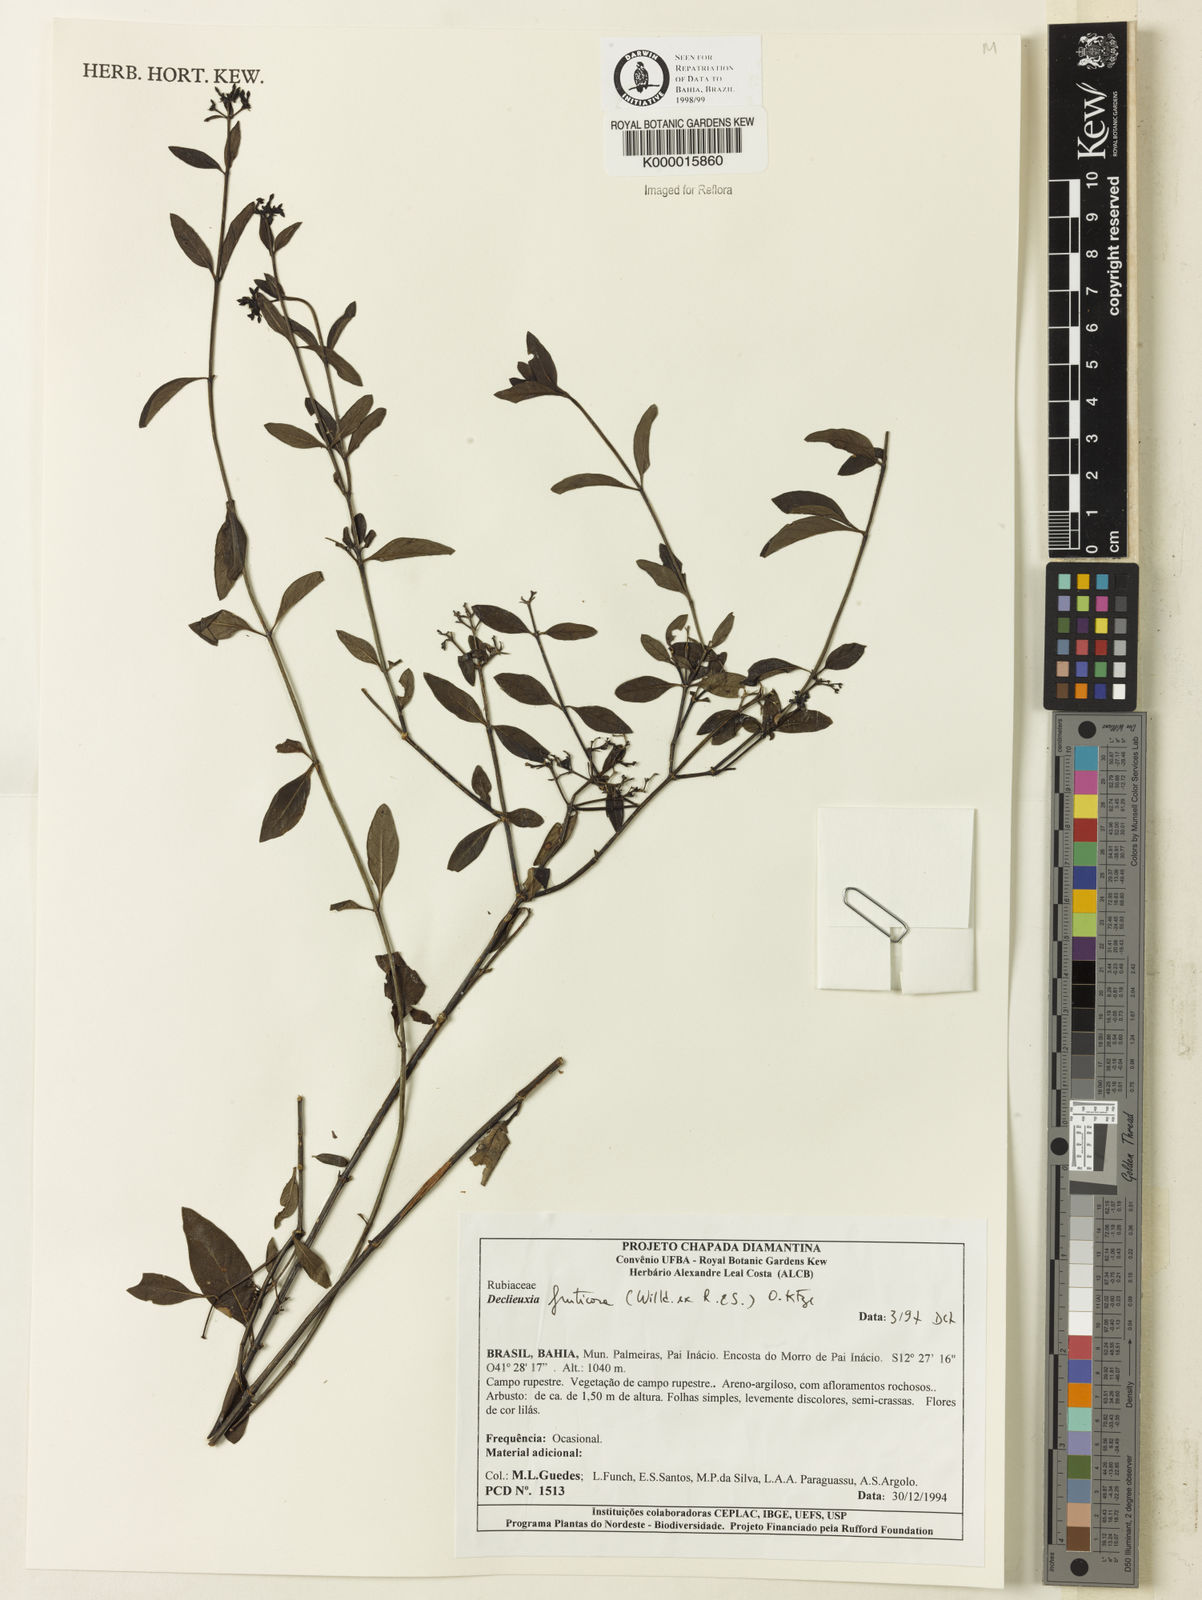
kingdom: Plantae
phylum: Tracheophyta
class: Magnoliopsida
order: Gentianales
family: Rubiaceae
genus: Declieuxia
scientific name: Declieuxia fruticosa
